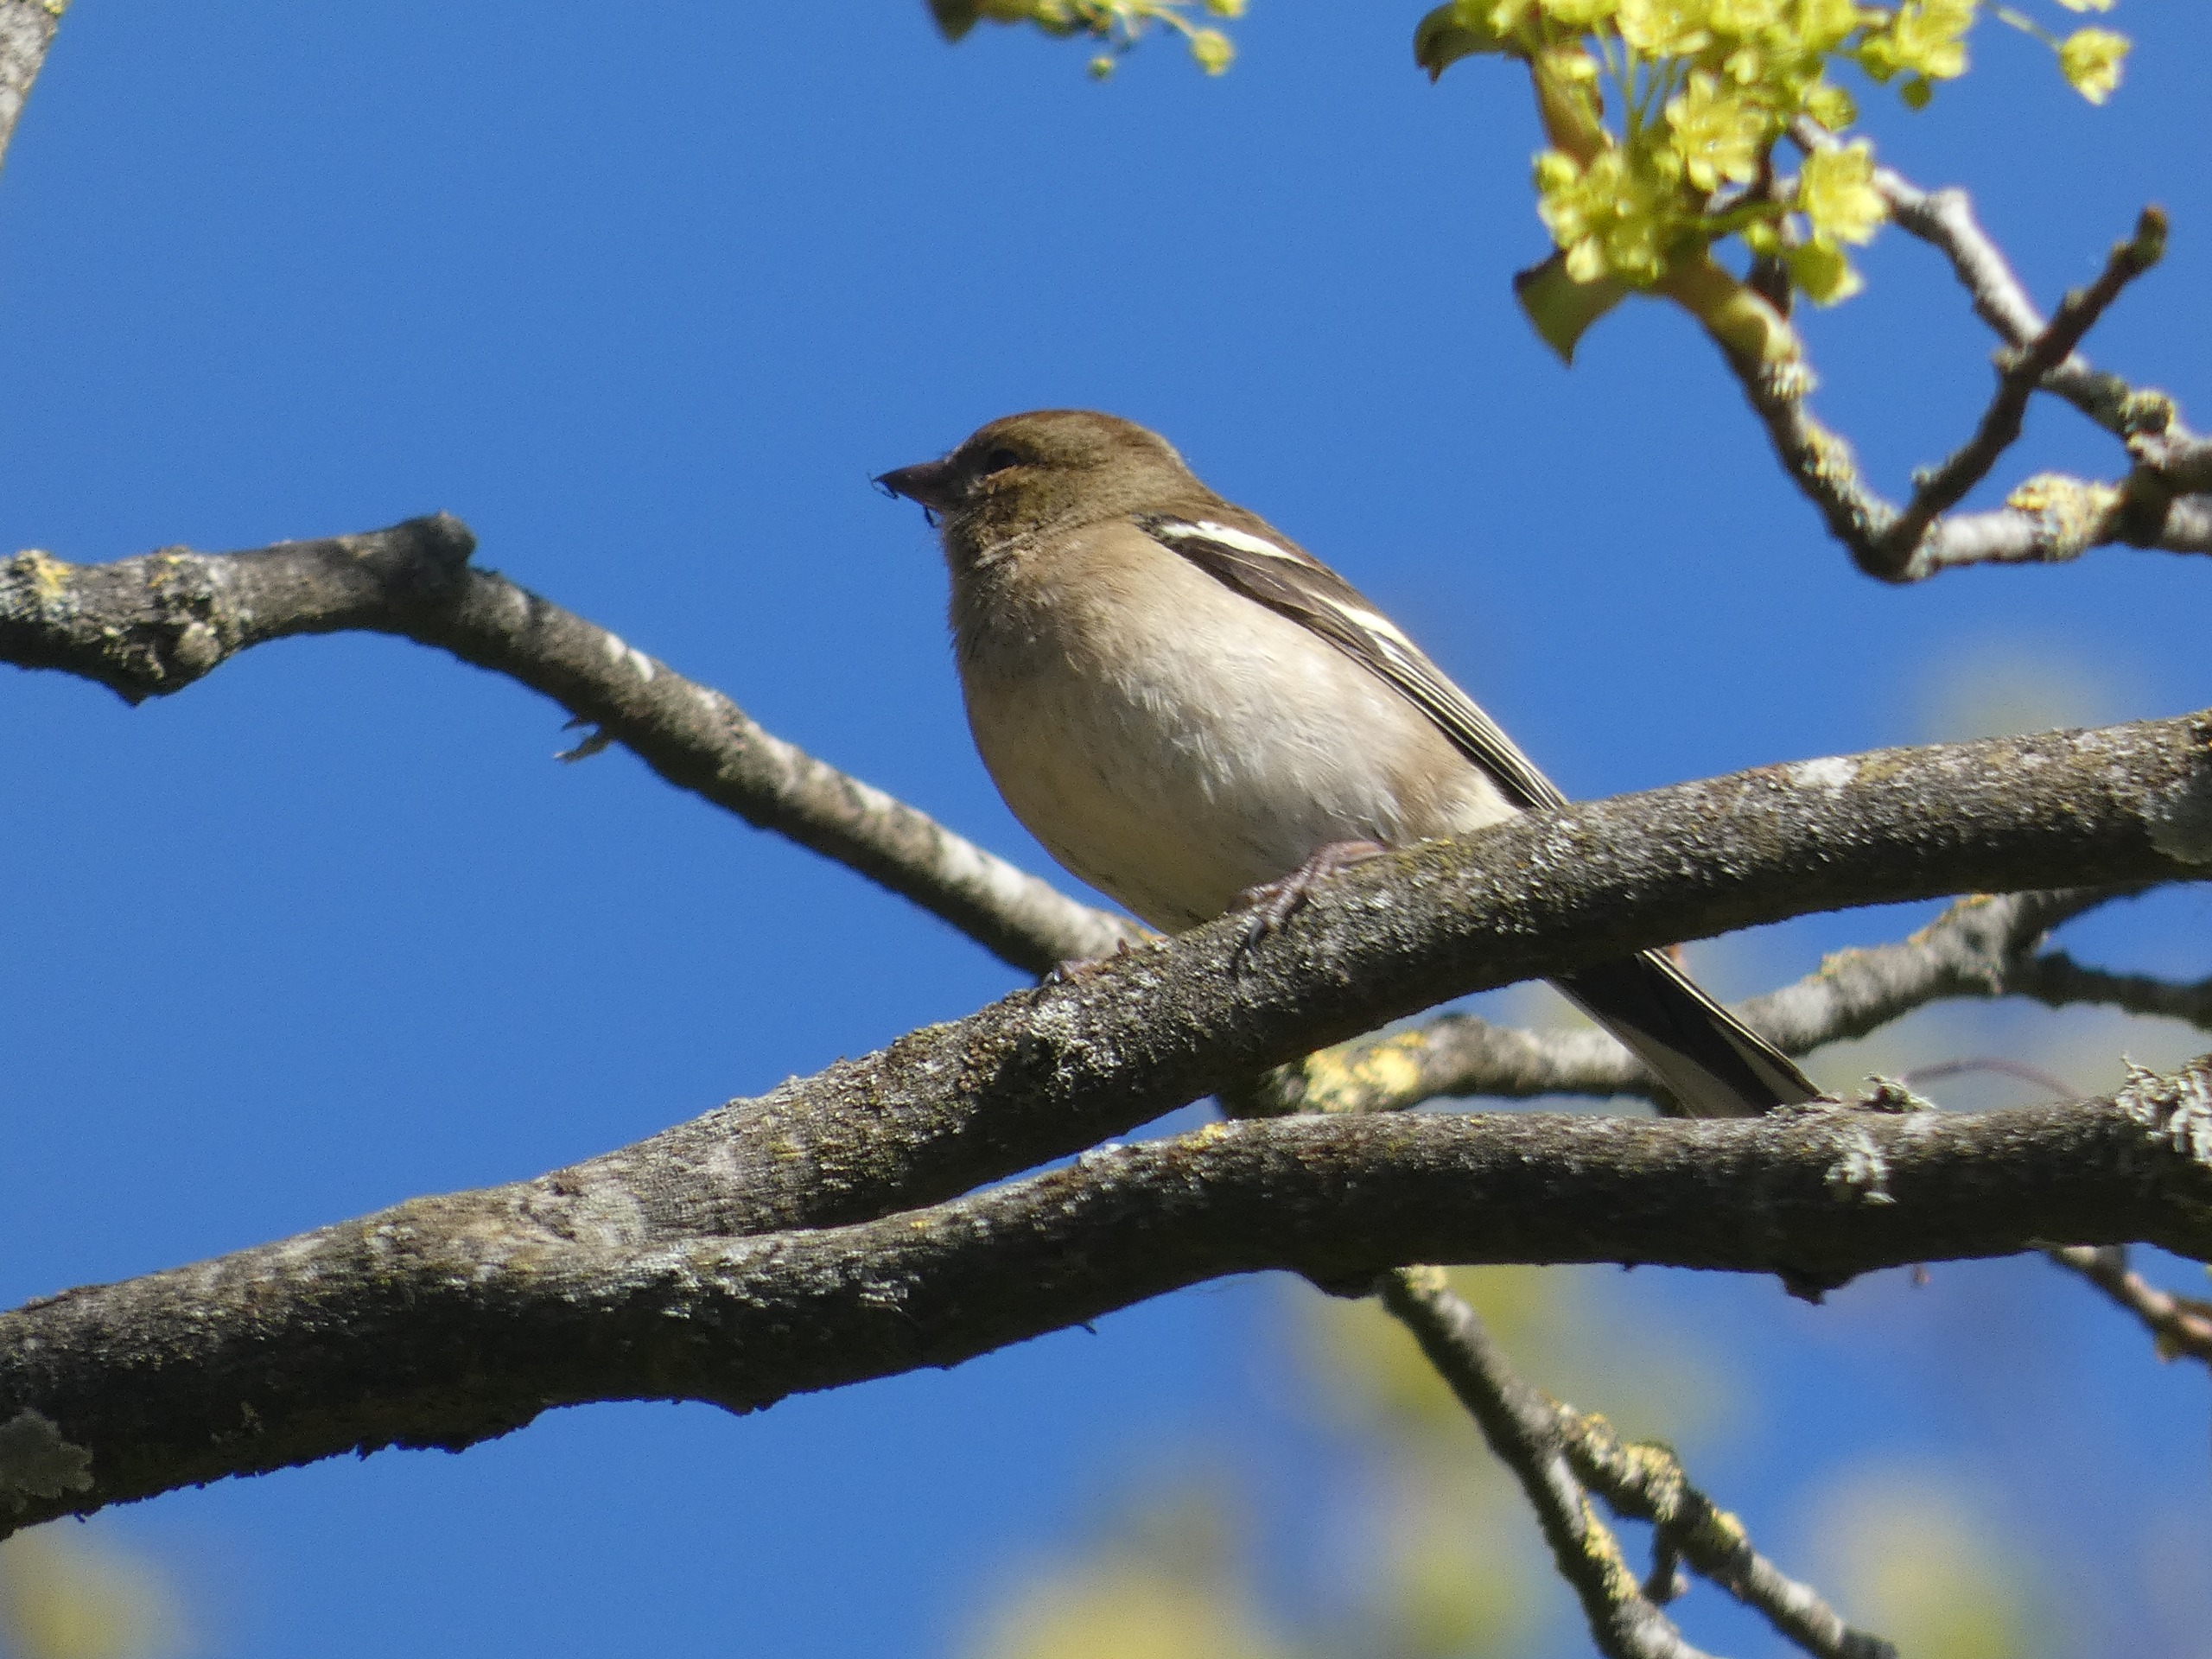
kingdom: Animalia
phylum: Chordata
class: Aves
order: Passeriformes
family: Fringillidae
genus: Fringilla
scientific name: Fringilla coelebs
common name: Bogfinke
